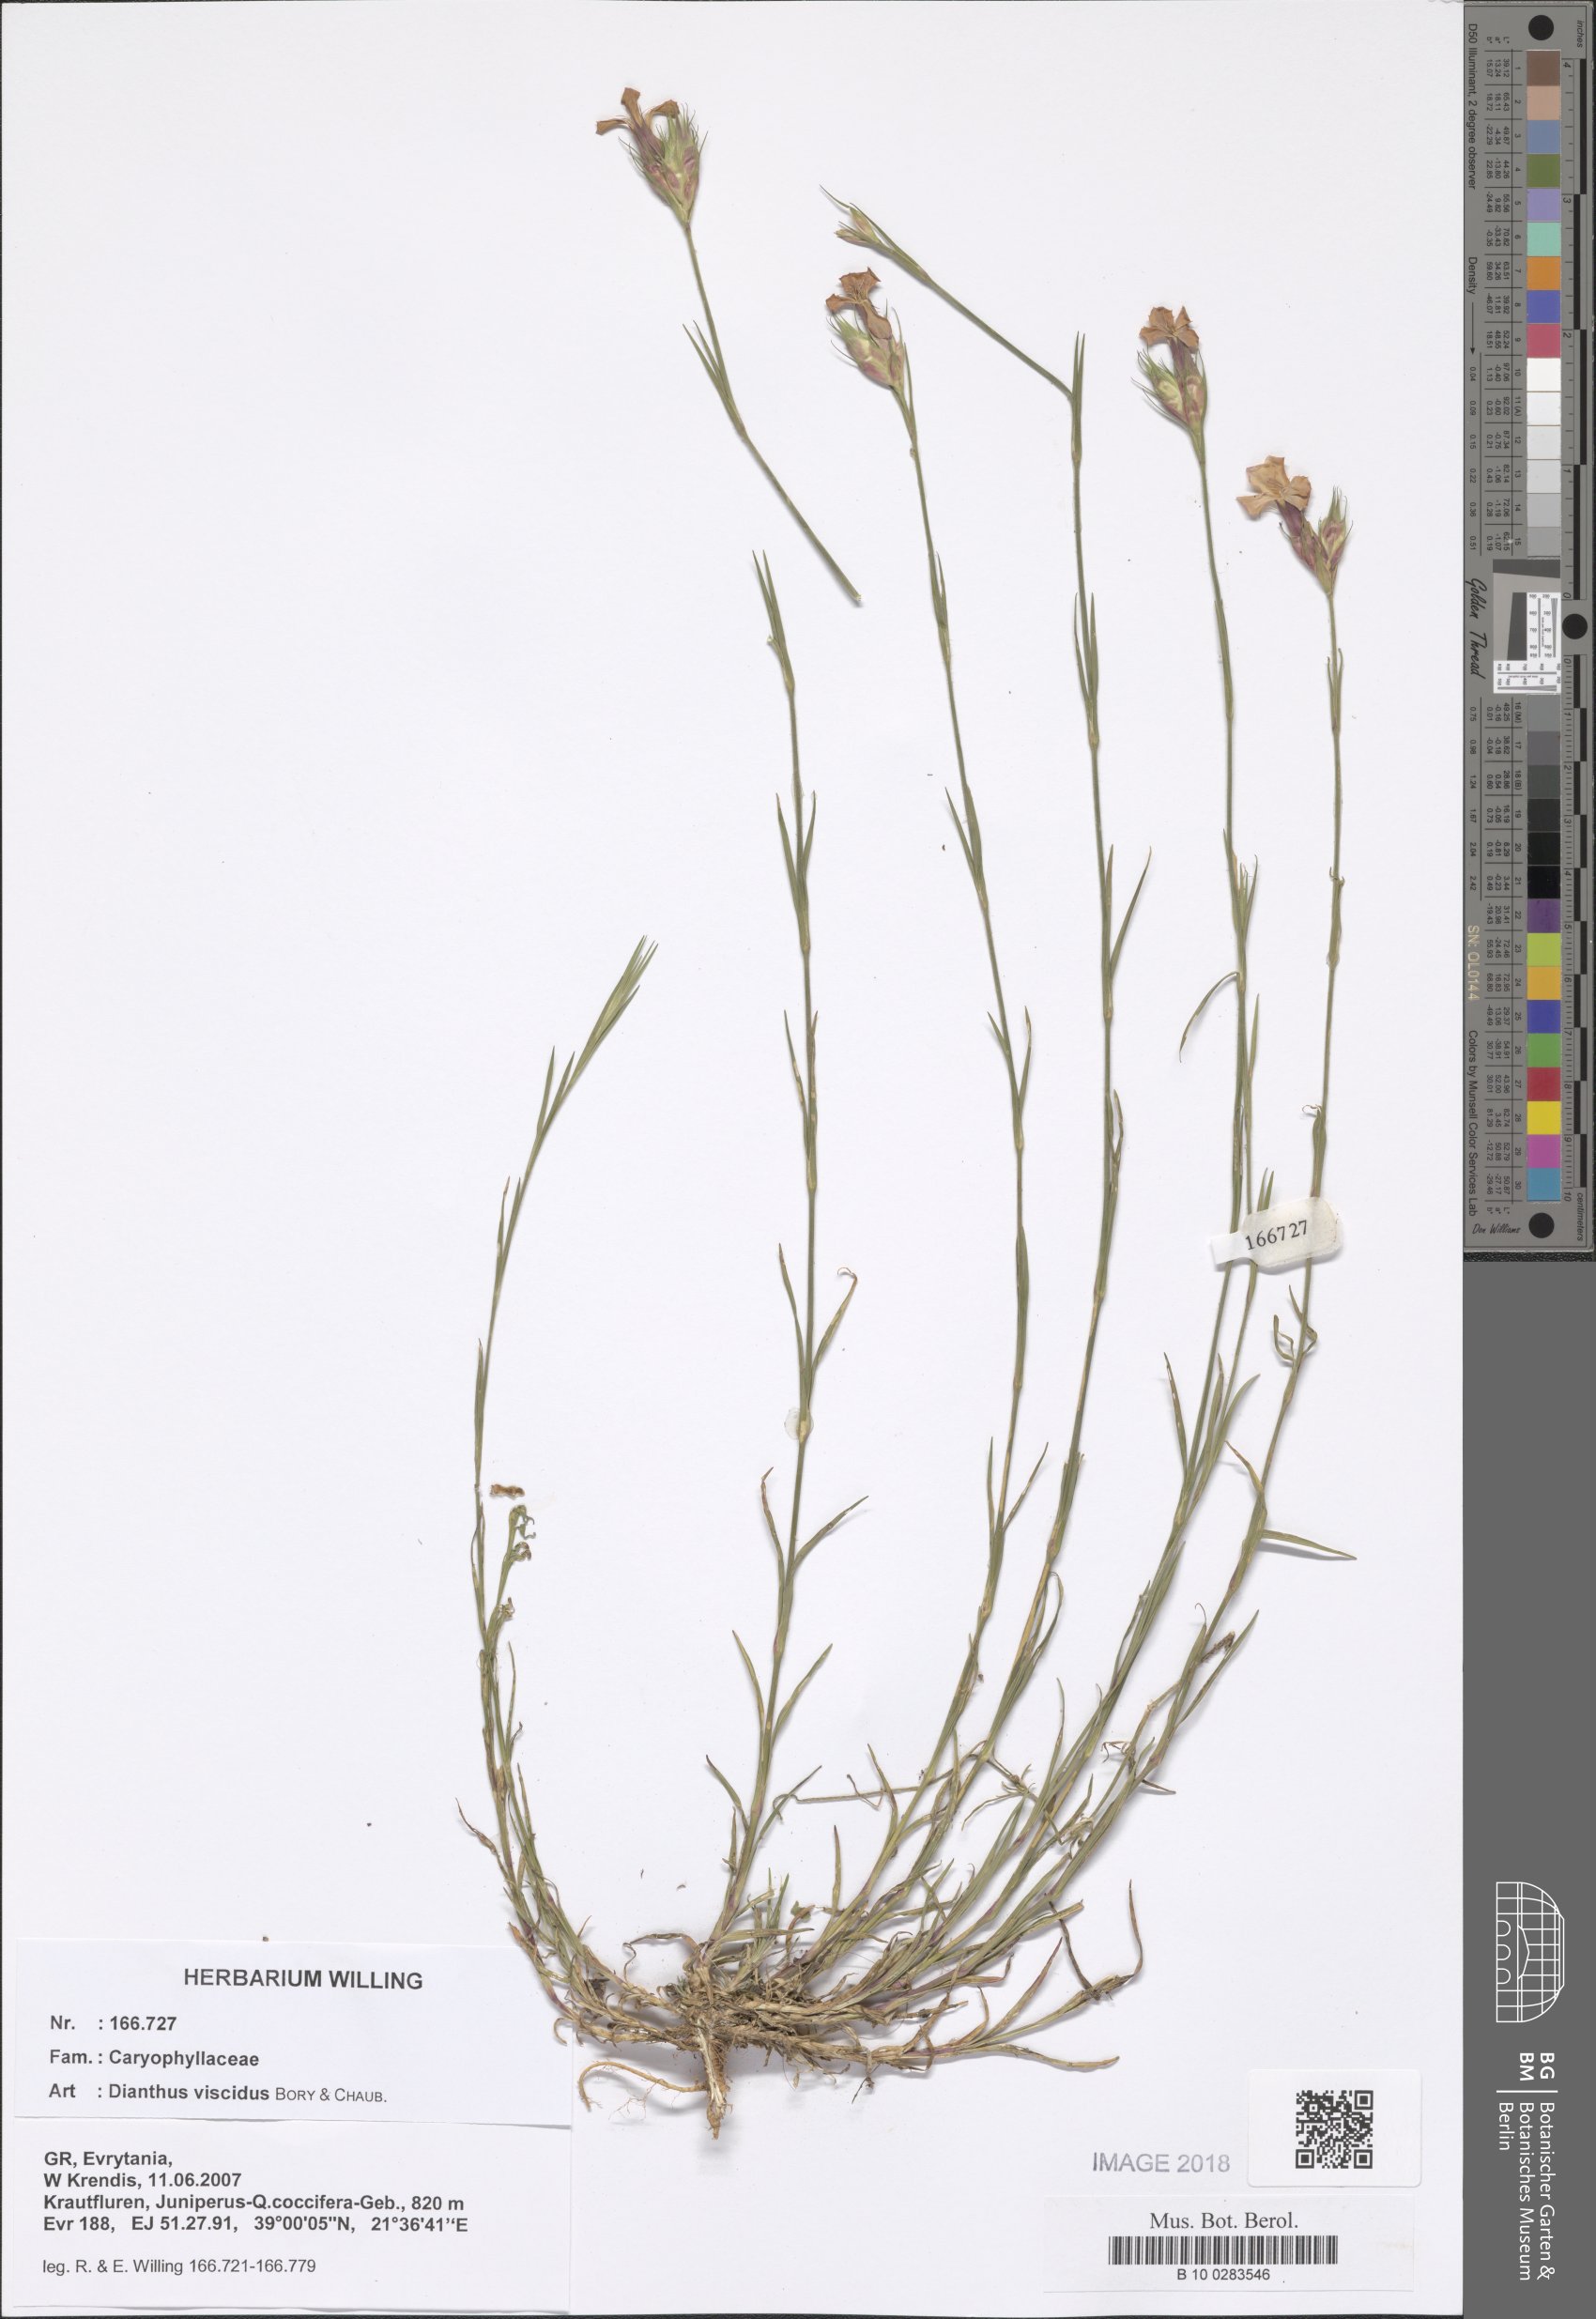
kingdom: Plantae
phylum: Tracheophyta
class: Magnoliopsida
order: Caryophyllales
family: Caryophyllaceae
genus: Dianthus
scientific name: Dianthus viscidus
